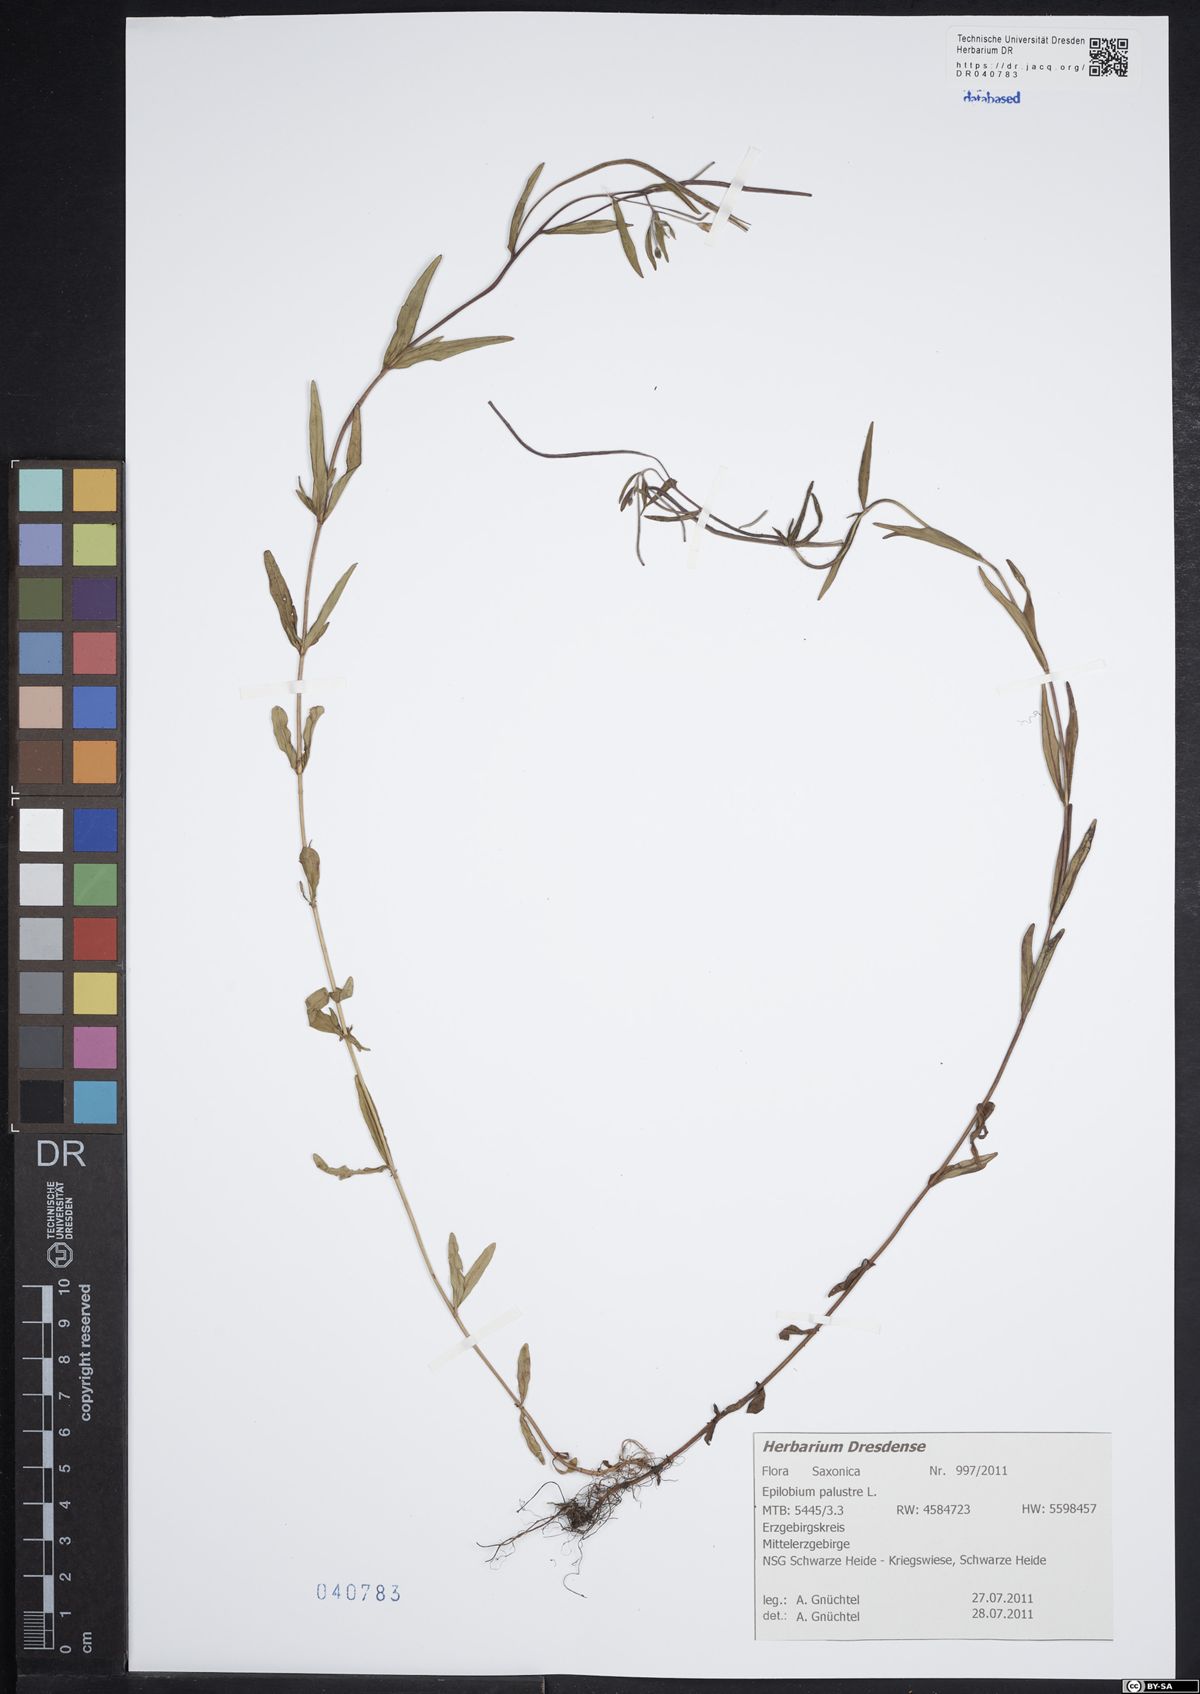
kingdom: Plantae
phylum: Tracheophyta
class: Magnoliopsida
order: Myrtales
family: Onagraceae
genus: Epilobium
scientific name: Epilobium palustre
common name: Marsh willowherb
